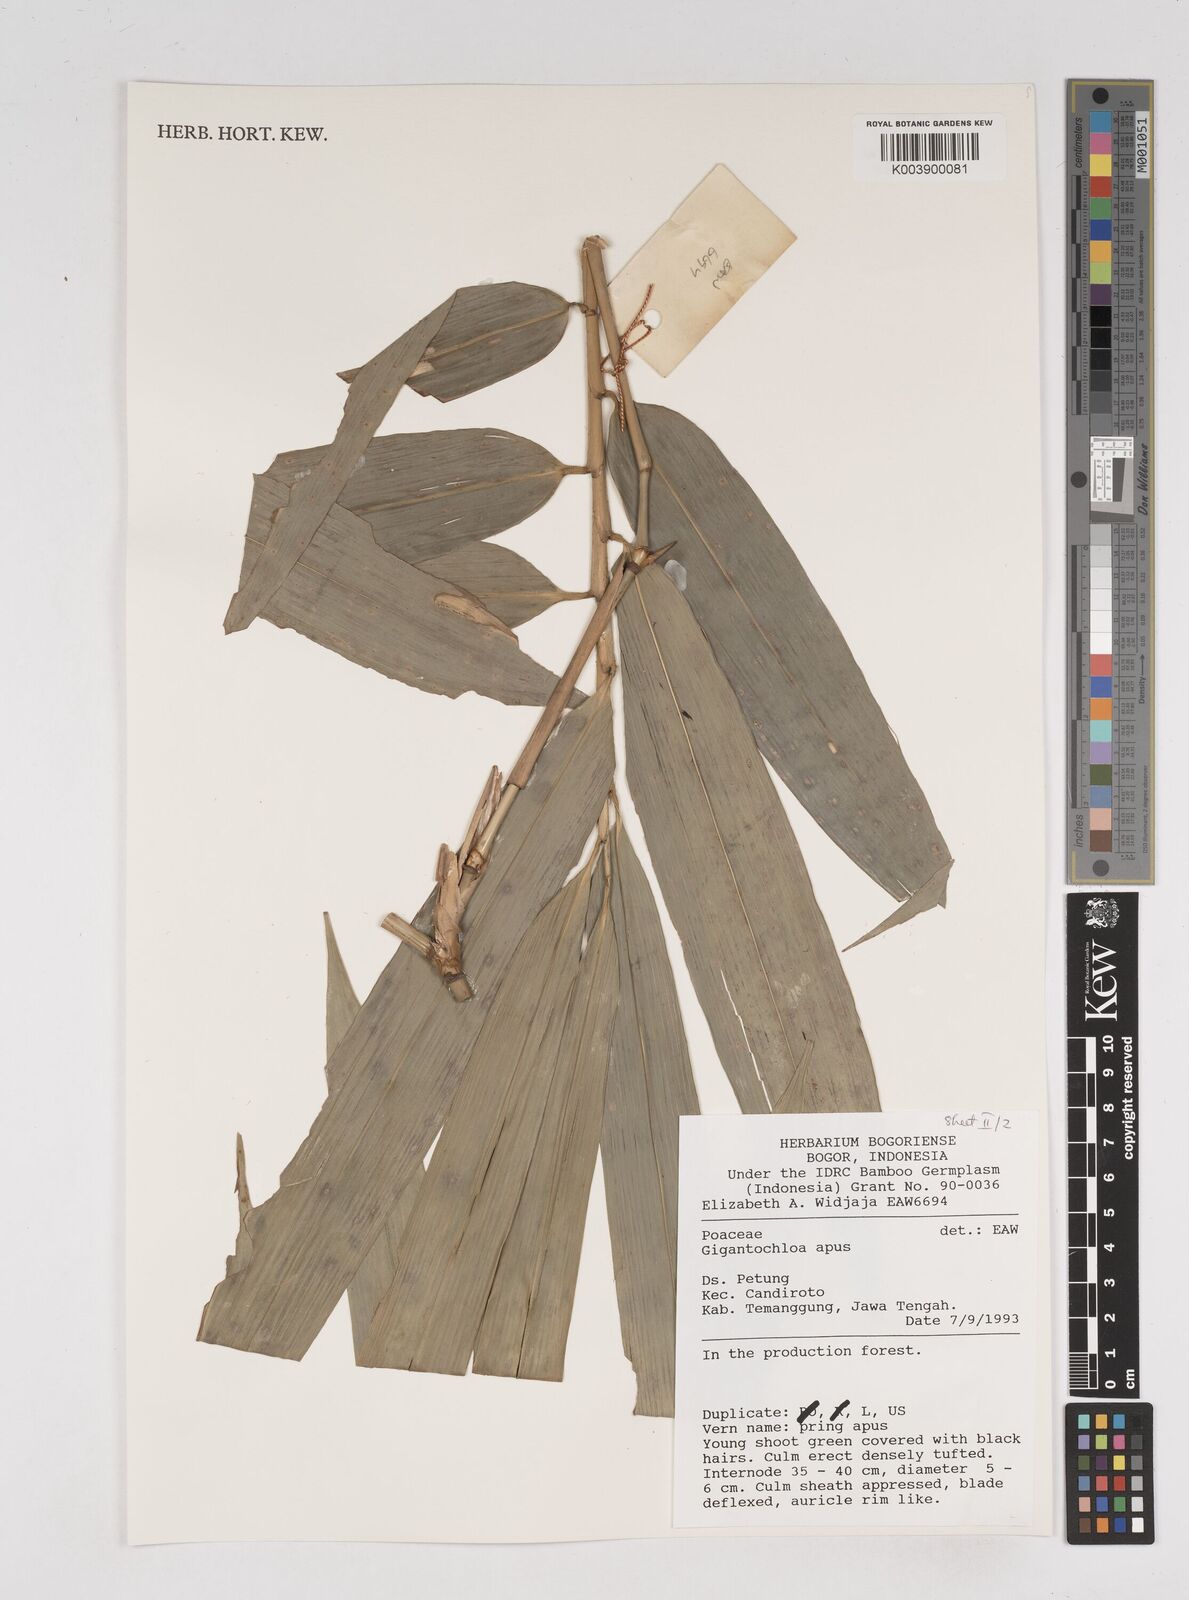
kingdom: Plantae
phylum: Tracheophyta
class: Liliopsida
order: Poales
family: Poaceae
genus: Gigantochloa
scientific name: Gigantochloa apus
